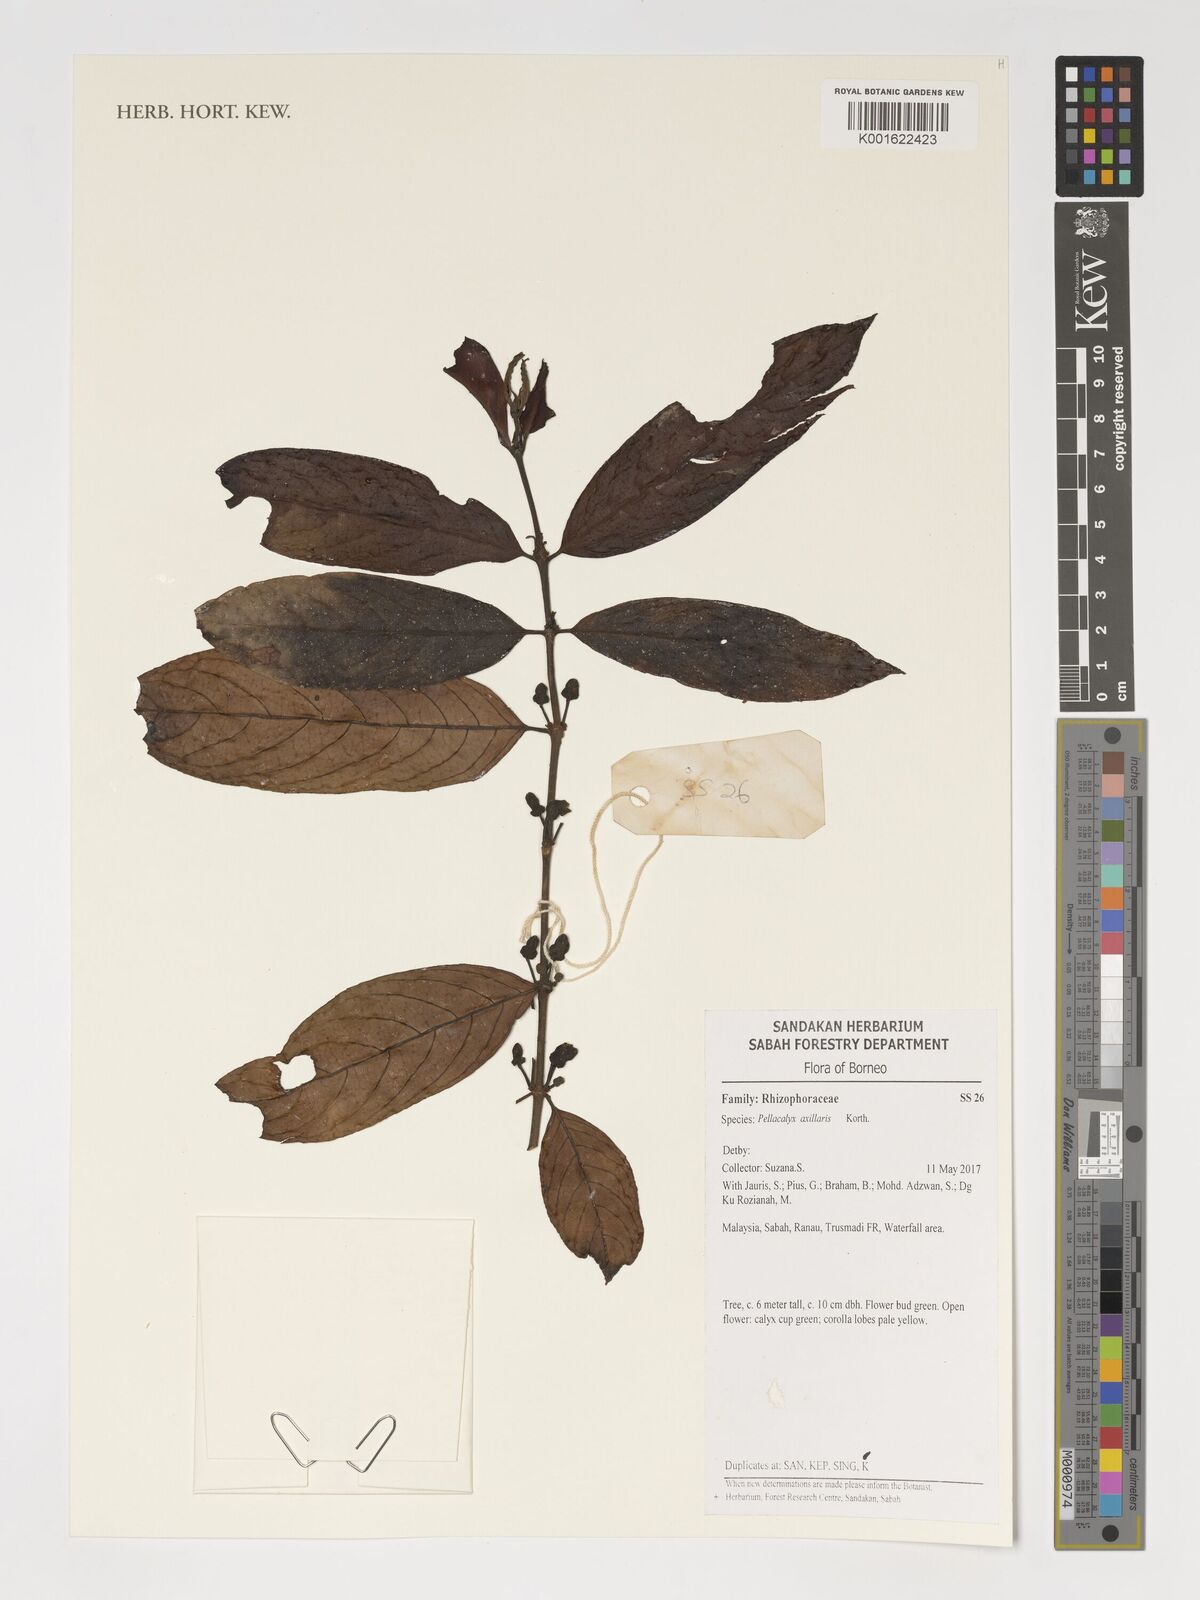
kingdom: Plantae
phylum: Tracheophyta
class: Magnoliopsida
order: Malpighiales
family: Rhizophoraceae
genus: Pellacalyx
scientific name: Pellacalyx axillaris
